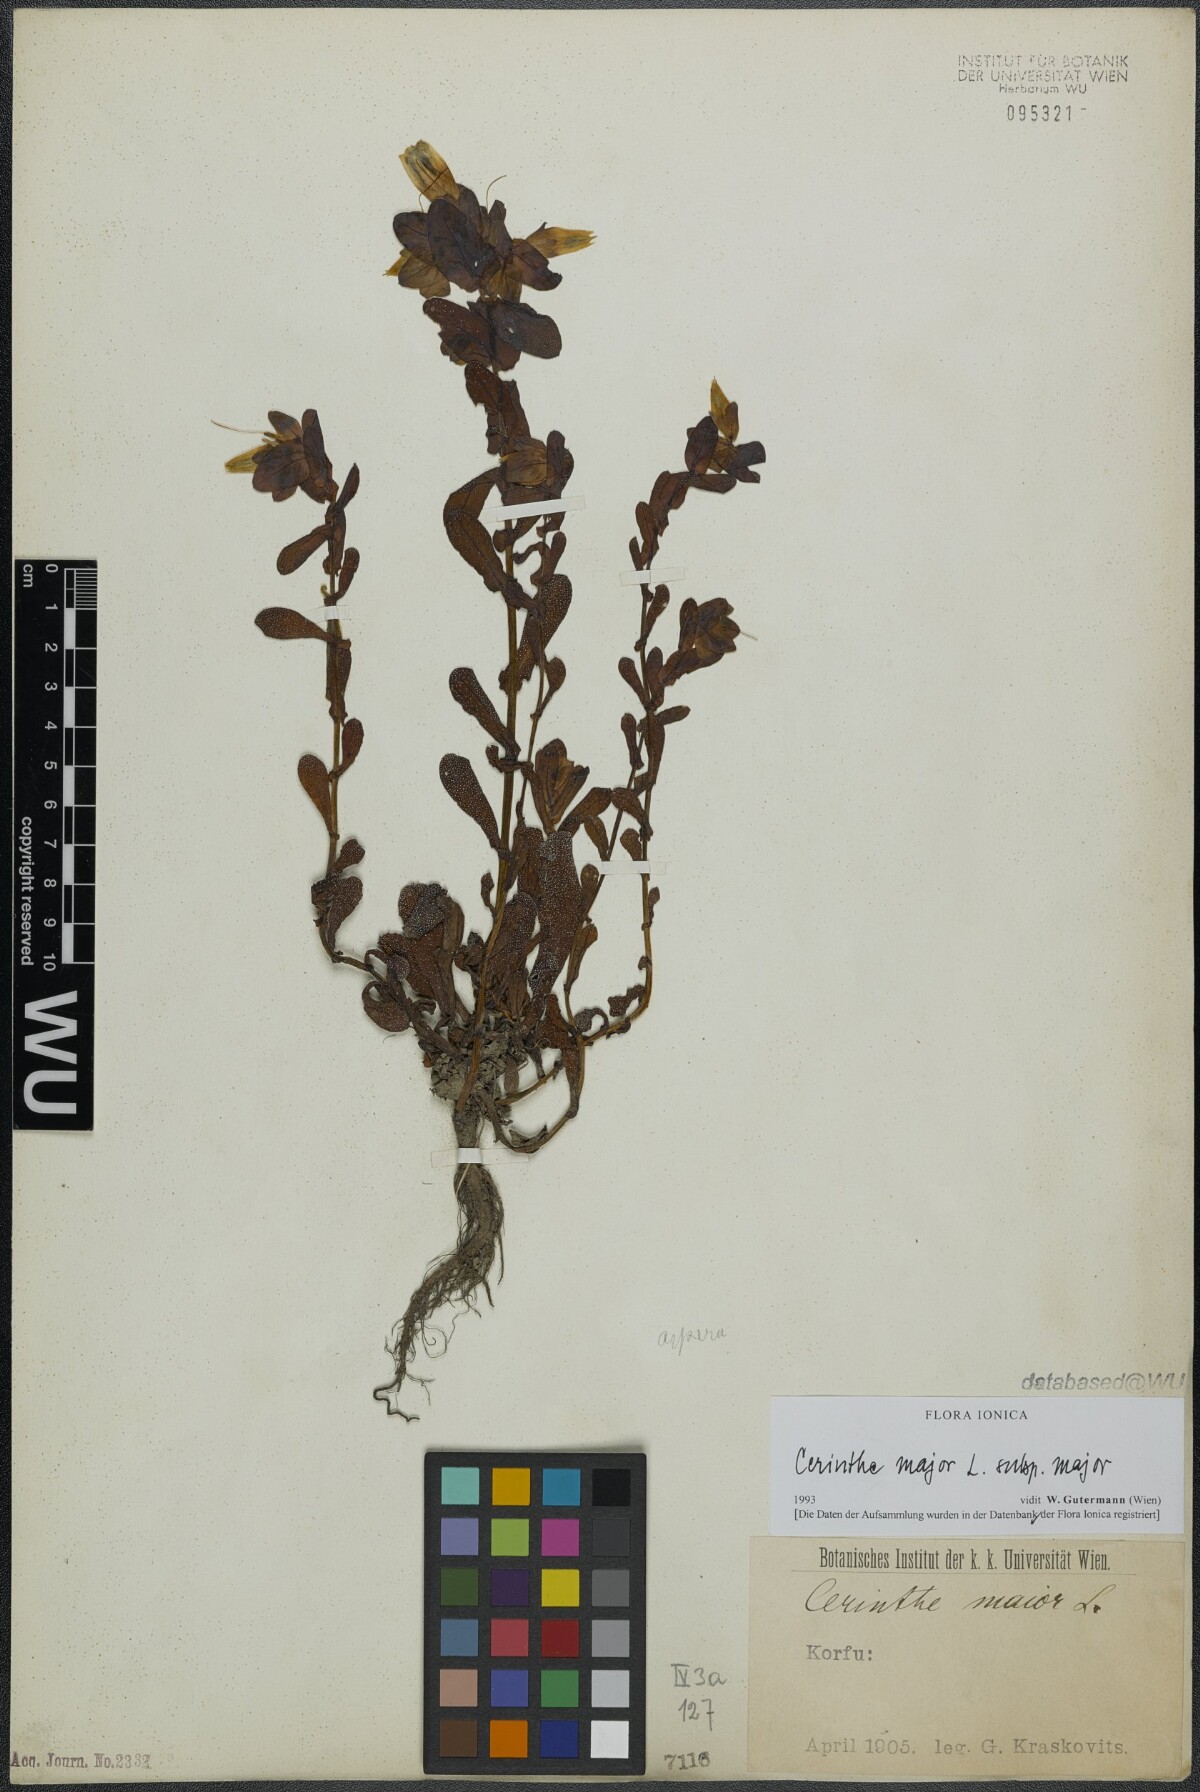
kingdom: Plantae
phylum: Tracheophyta
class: Magnoliopsida
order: Boraginales
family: Boraginaceae
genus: Cerinthe
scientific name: Cerinthe major
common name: Greater honeywort
